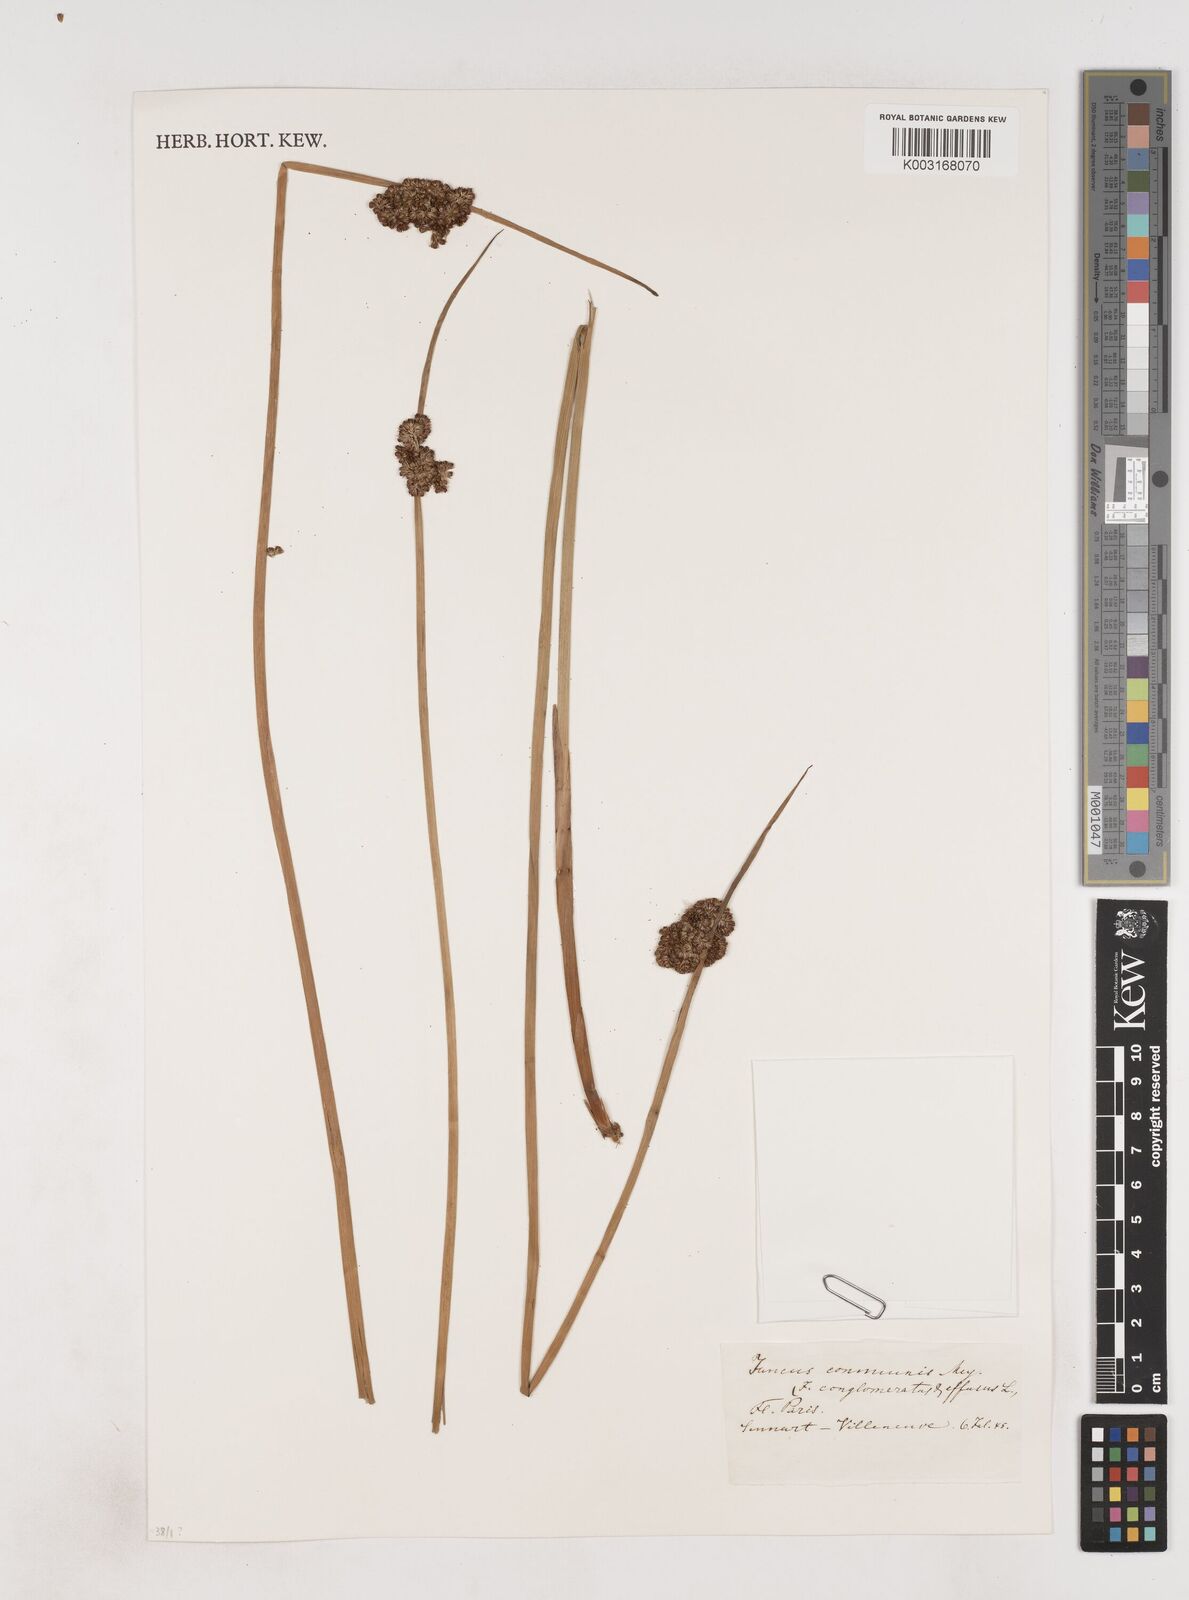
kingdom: Plantae
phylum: Tracheophyta
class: Liliopsida
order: Poales
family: Juncaceae
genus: Juncus
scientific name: Juncus conglomeratus
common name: Compact rush
